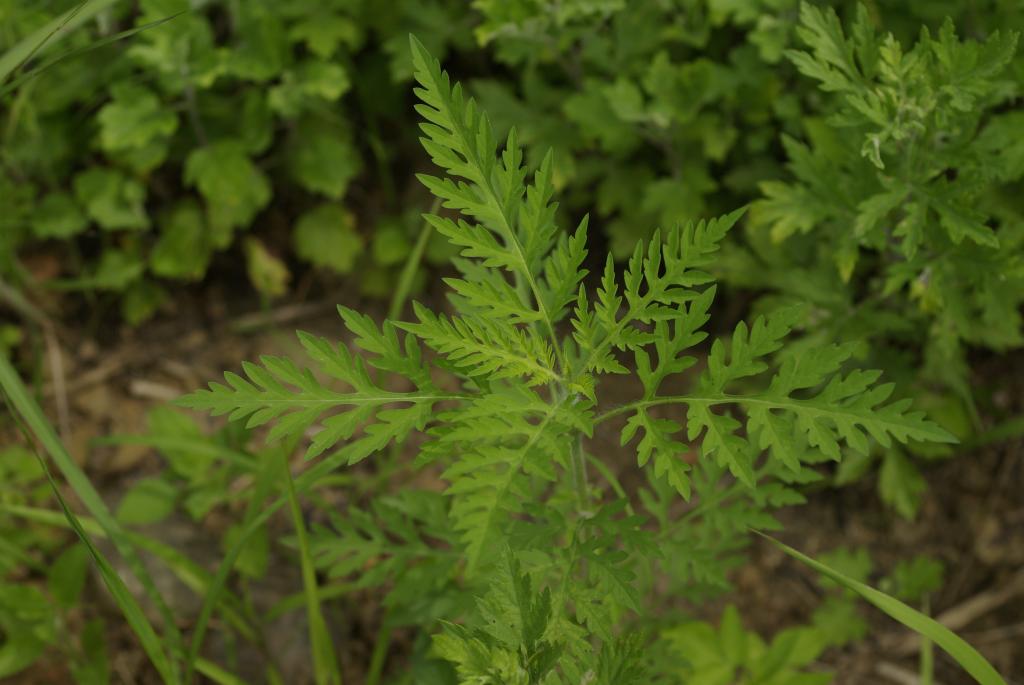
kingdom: Plantae
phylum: Tracheophyta
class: Magnoliopsida
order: Asterales
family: Asteraceae
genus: Ambrosia
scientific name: Ambrosia artemisiifolia
